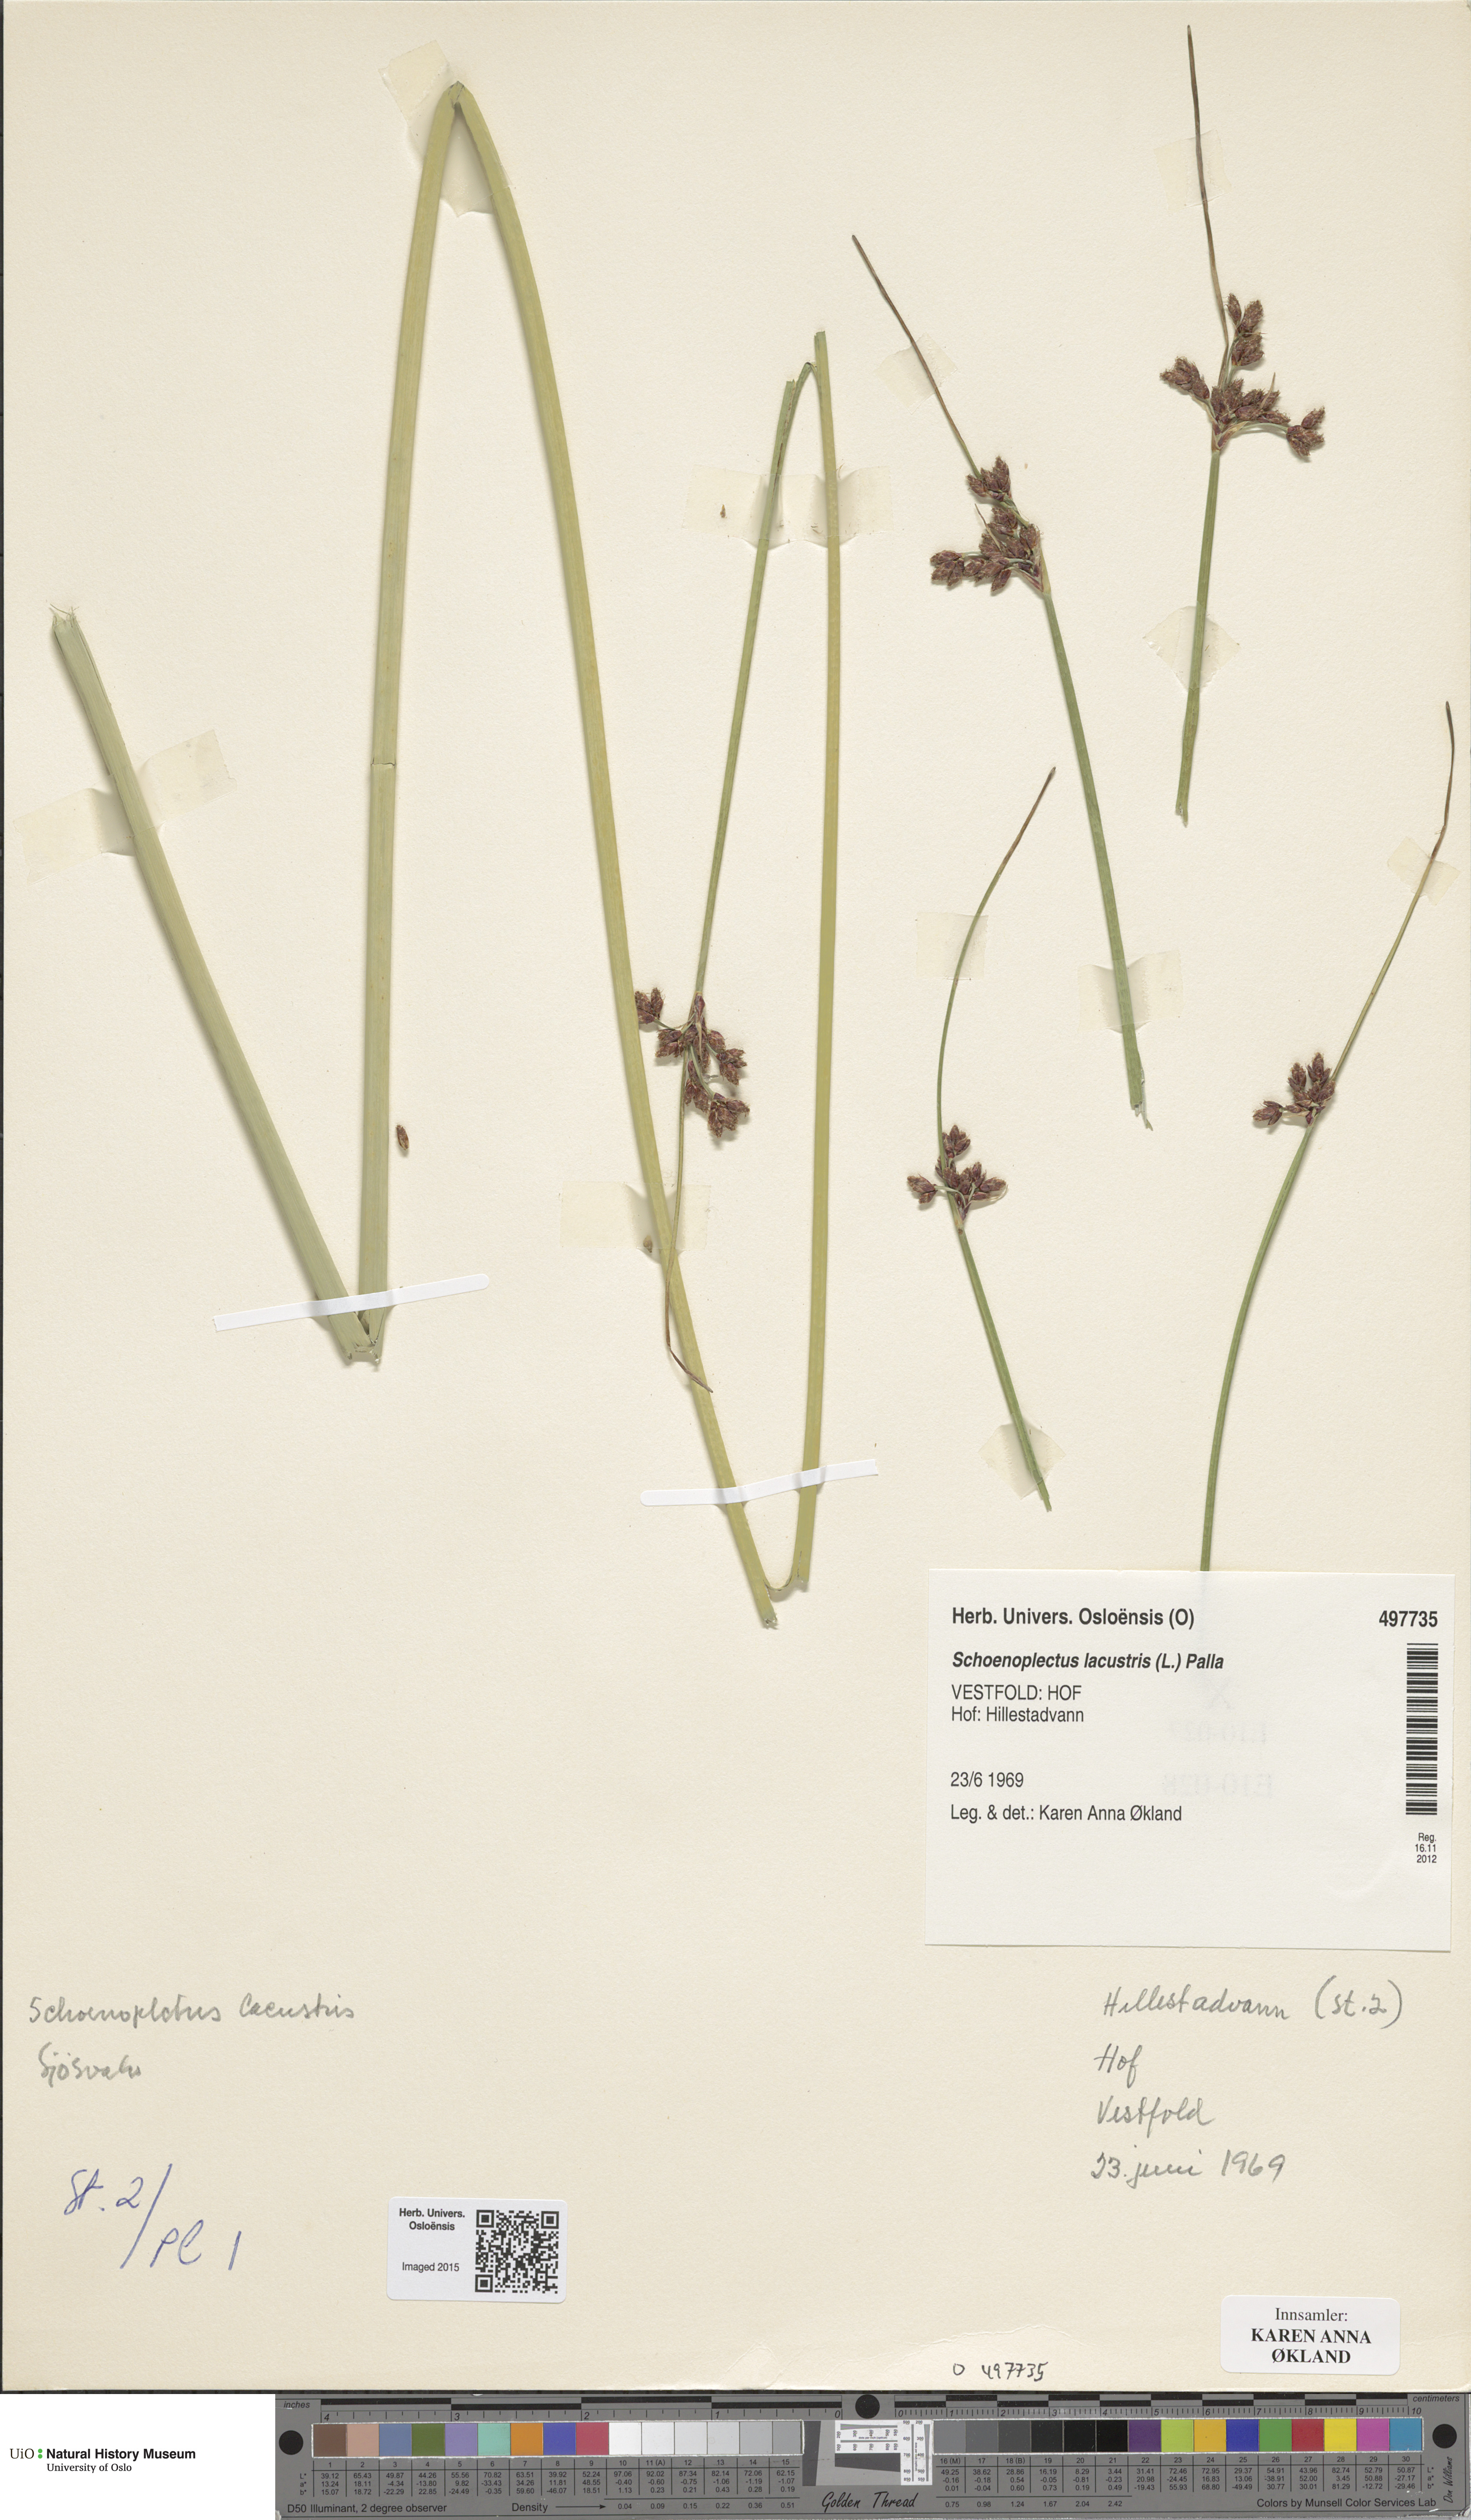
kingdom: Plantae
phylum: Tracheophyta
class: Liliopsida
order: Poales
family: Cyperaceae
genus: Schoenoplectus
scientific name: Schoenoplectus lacustris
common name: Common club-rush
